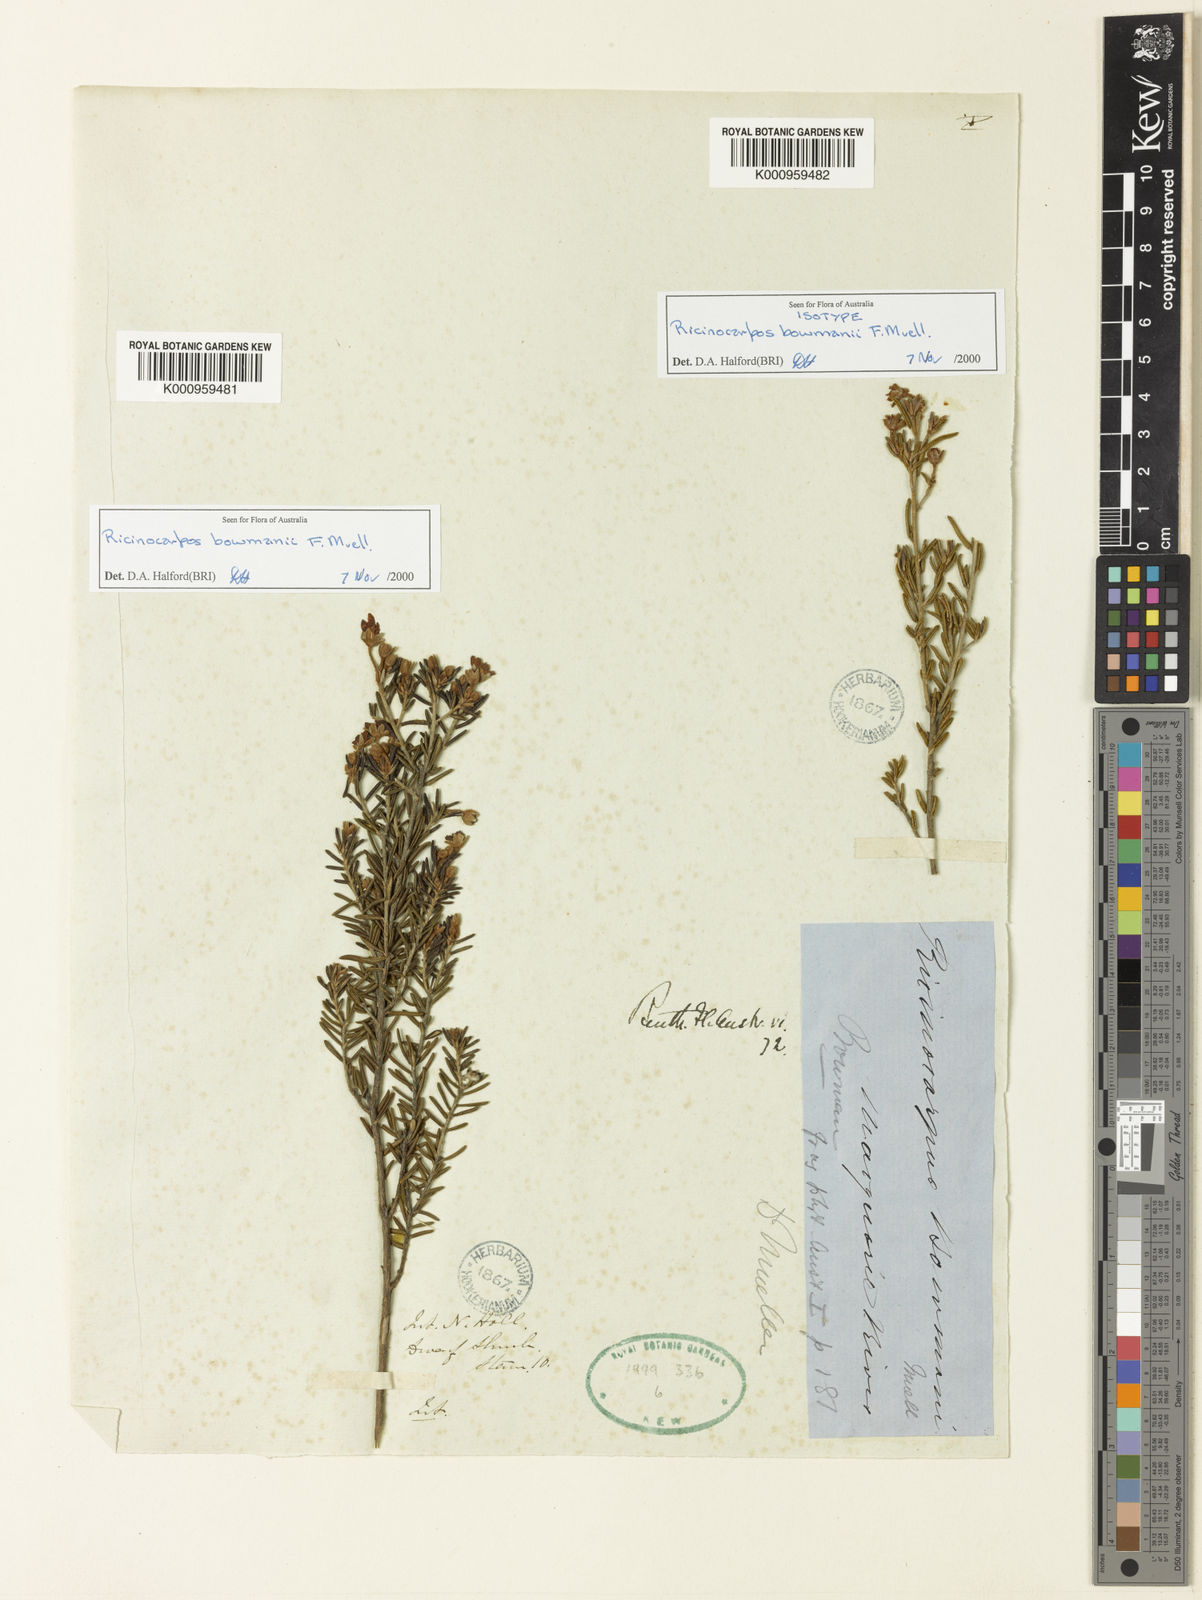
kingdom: Plantae
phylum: Tracheophyta
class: Magnoliopsida
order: Malpighiales
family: Euphorbiaceae
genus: Ricinocarpos
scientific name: Ricinocarpos bowmanii
